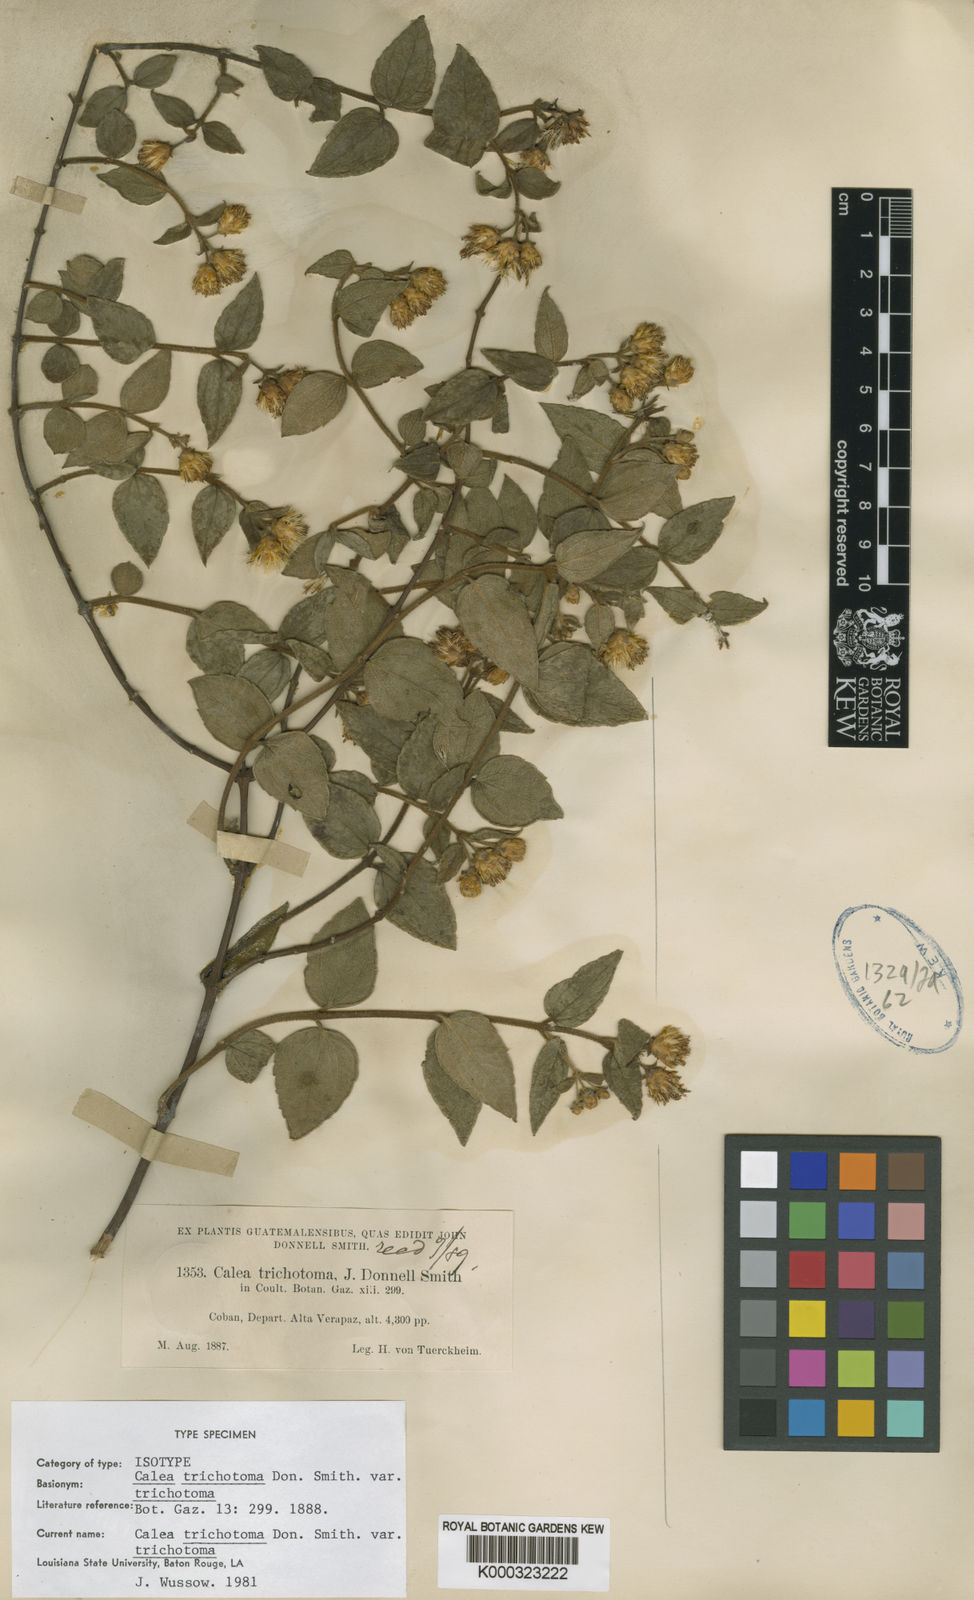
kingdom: Plantae
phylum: Tracheophyta
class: Magnoliopsida
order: Asterales
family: Asteraceae
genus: Calea
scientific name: Calea trichotoma
